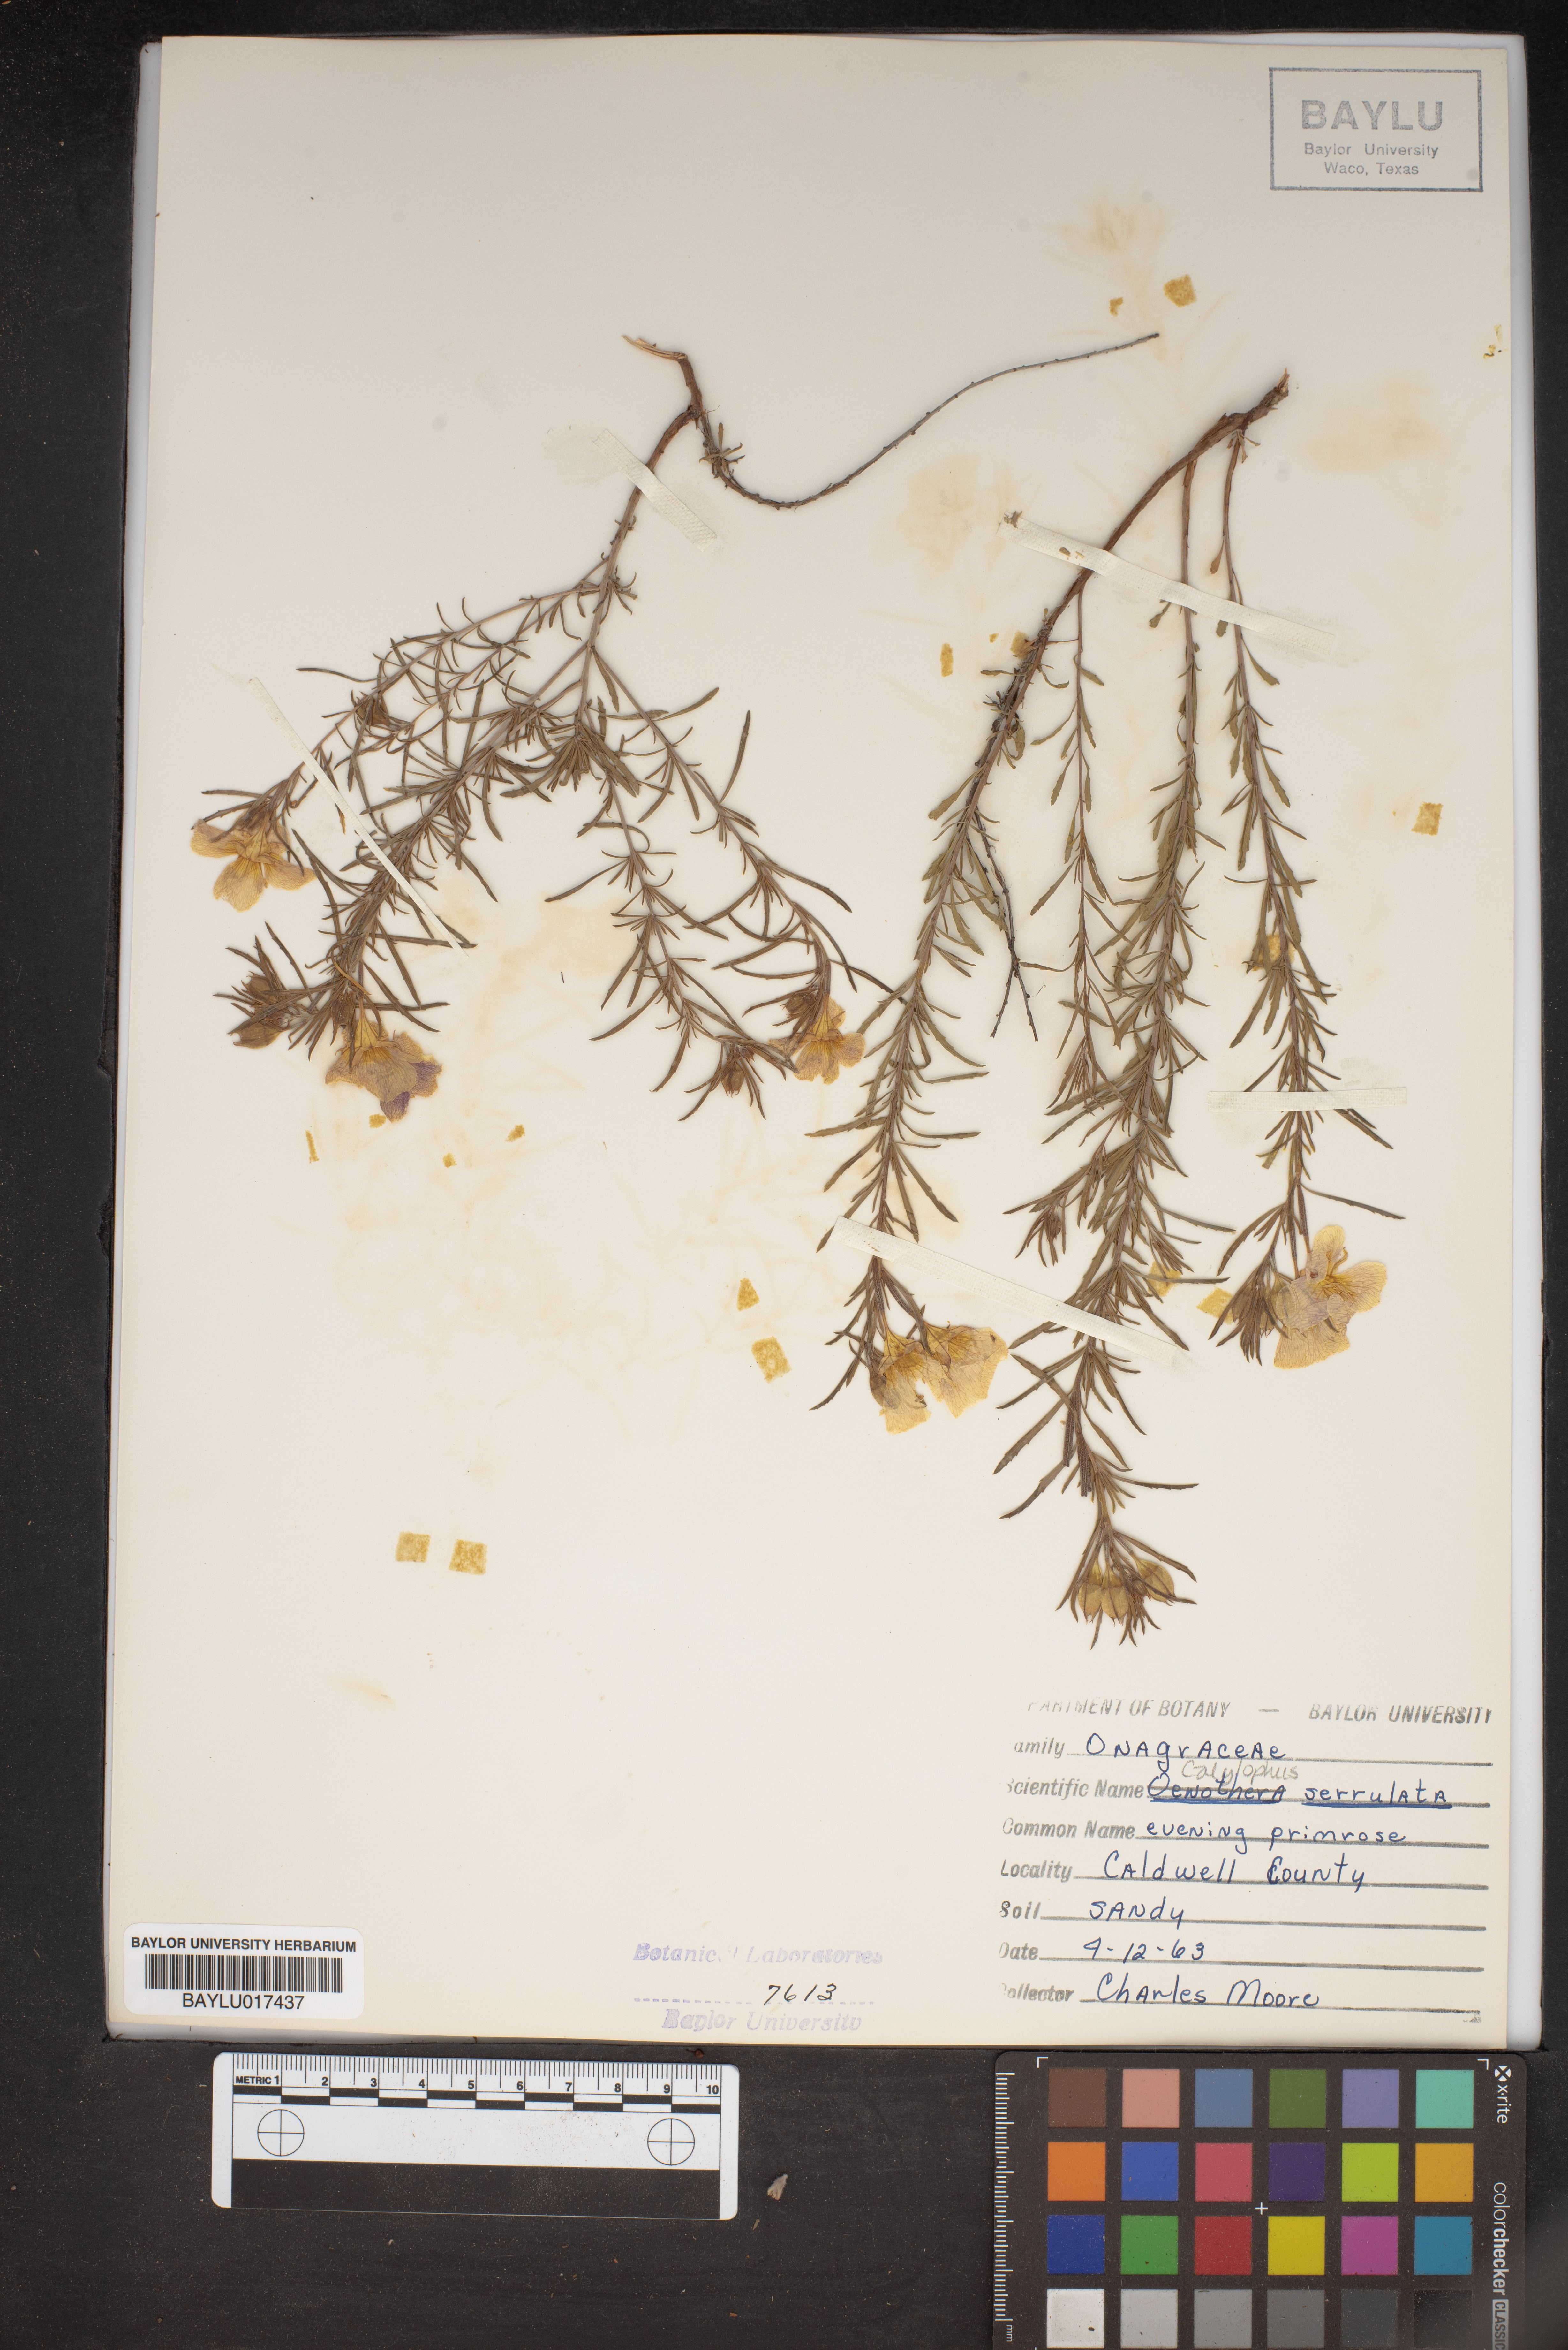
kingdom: Plantae
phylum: Tracheophyta
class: Magnoliopsida
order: Myrtales
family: Onagraceae
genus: Oenothera
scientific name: Oenothera serrulata
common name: Half-shrub calylophus
